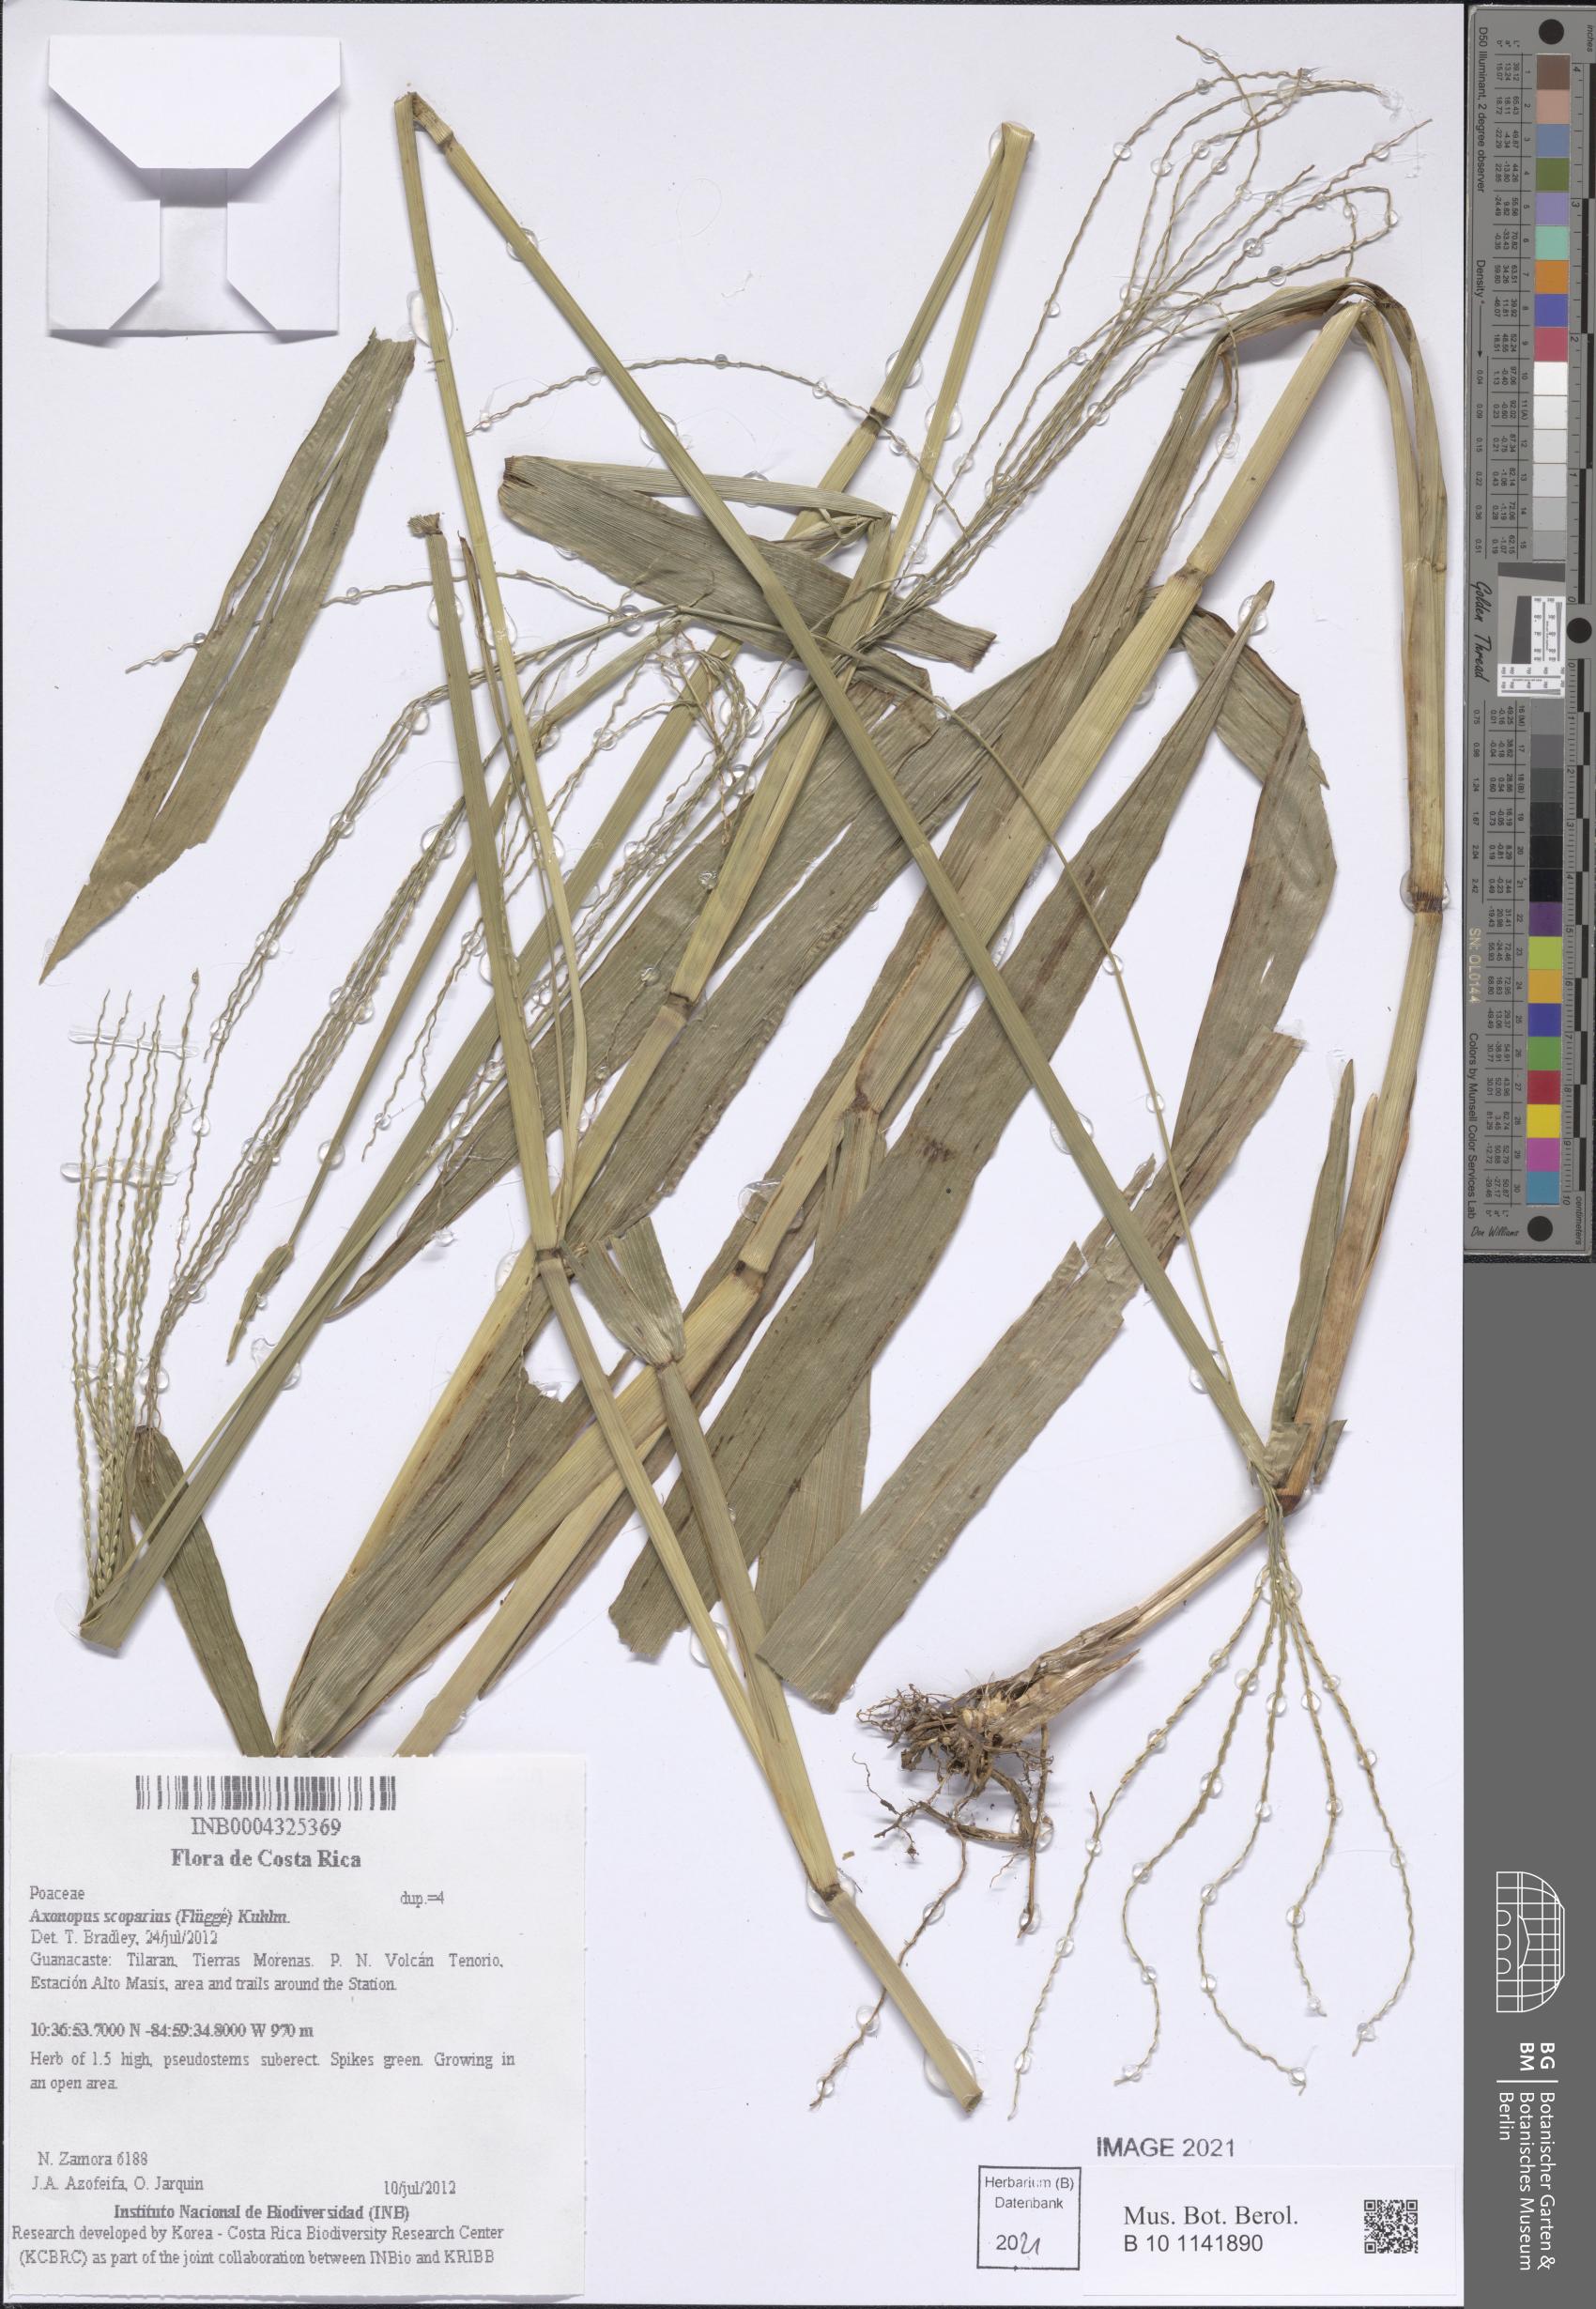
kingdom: Plantae
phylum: Tracheophyta
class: Liliopsida
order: Poales
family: Poaceae
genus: Axonopus
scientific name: Axonopus scoparius
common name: Imperial grass
